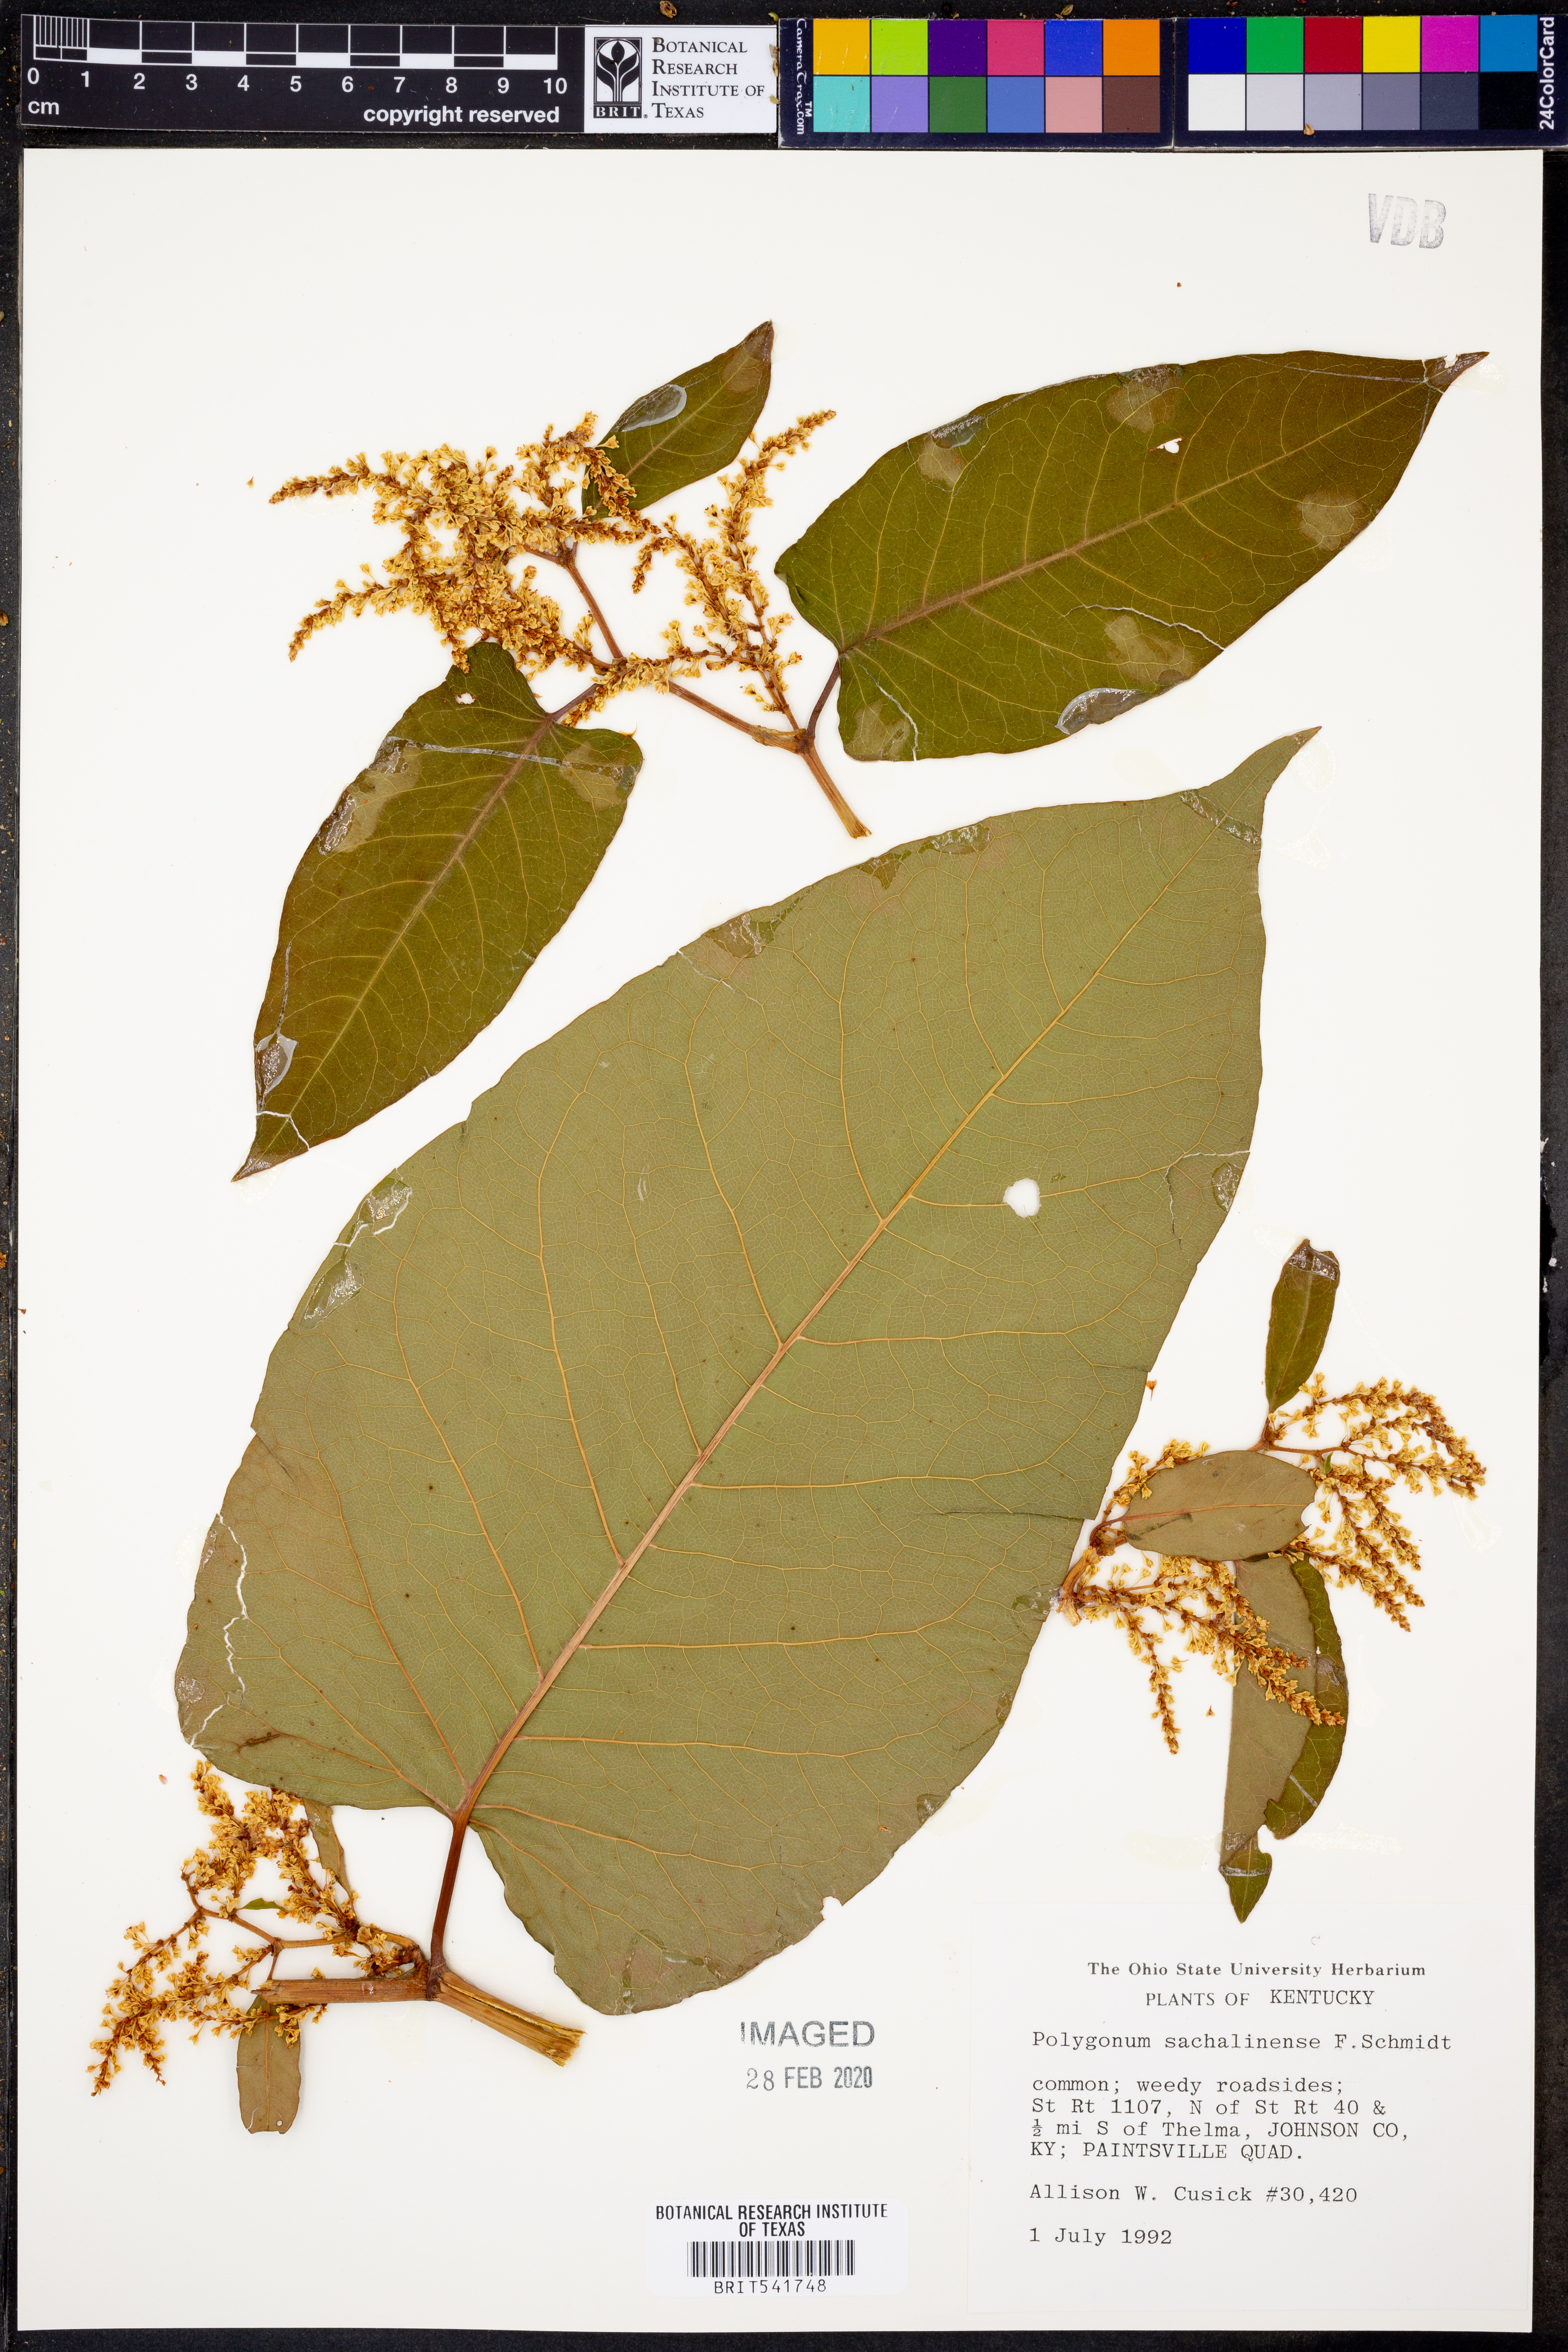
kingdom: Plantae
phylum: Tracheophyta
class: Magnoliopsida
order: Caryophyllales
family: Polygonaceae
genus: Reynoutria
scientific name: Reynoutria sachalinensis
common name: Giant knotweed
